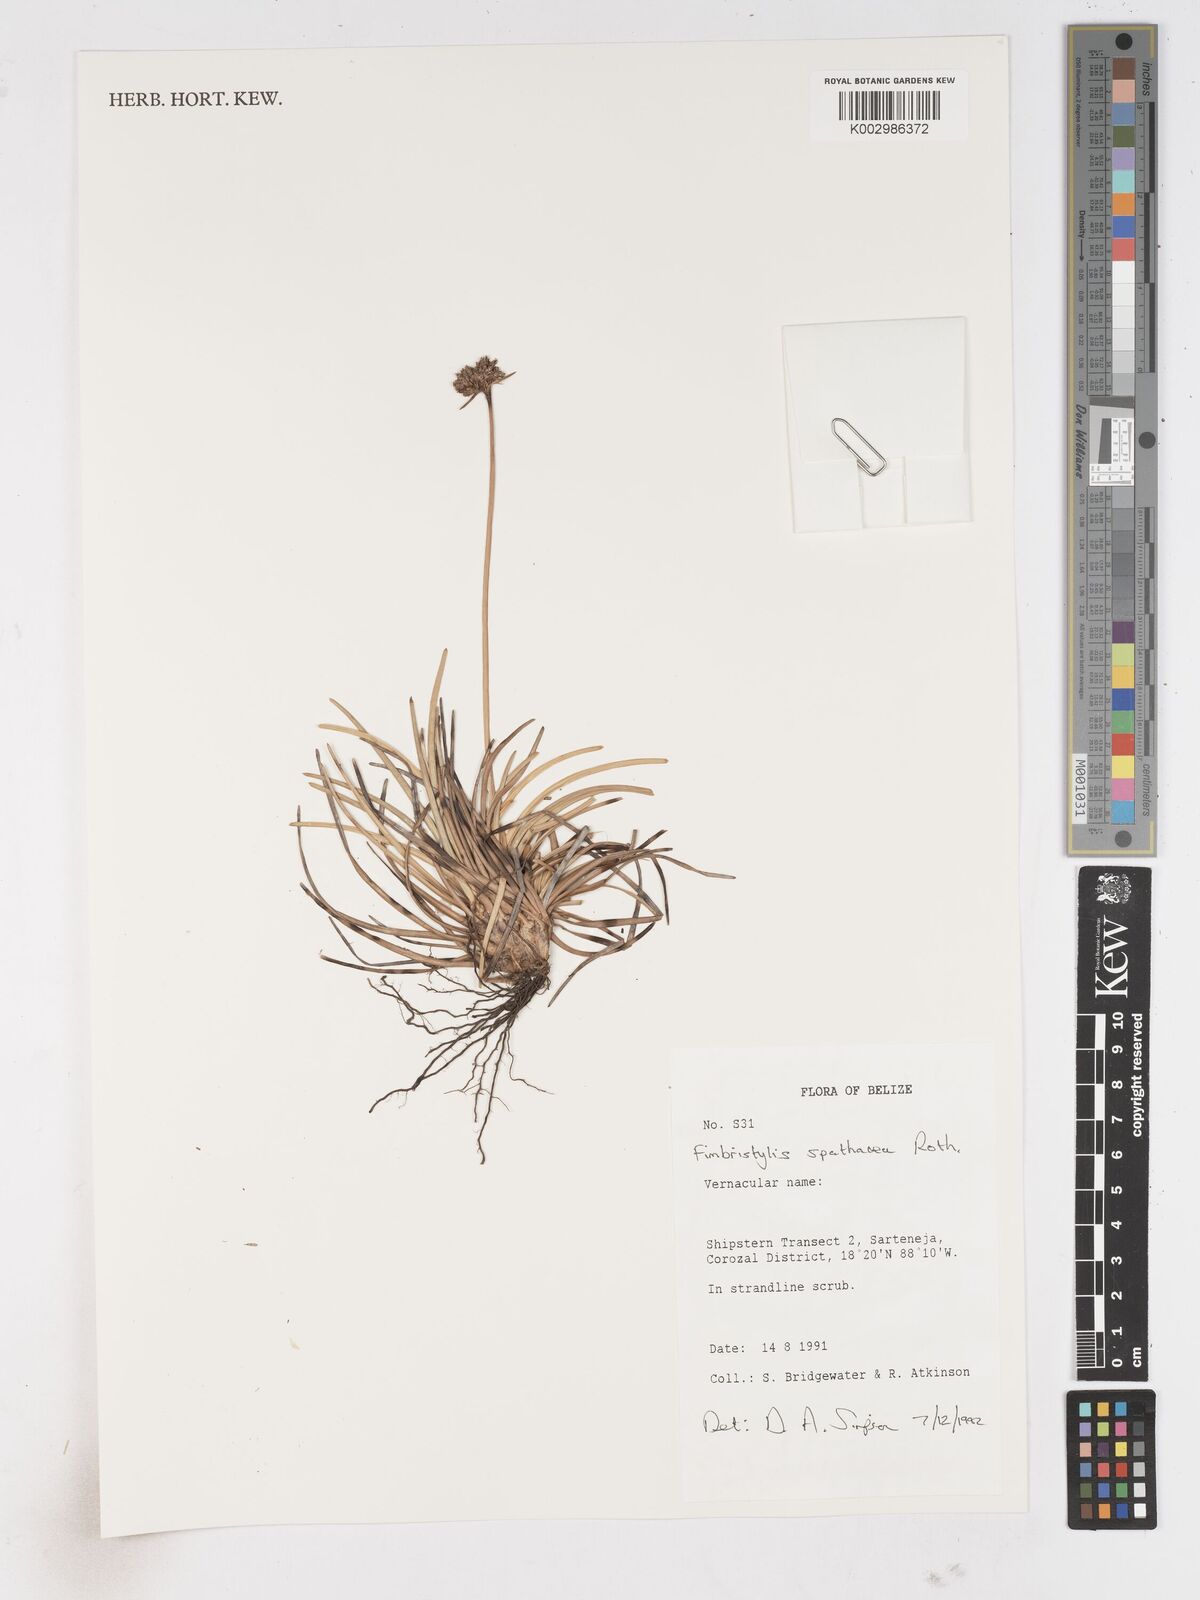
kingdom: Plantae
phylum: Tracheophyta
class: Liliopsida
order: Poales
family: Cyperaceae
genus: Fimbristylis
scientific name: Fimbristylis cymosa
